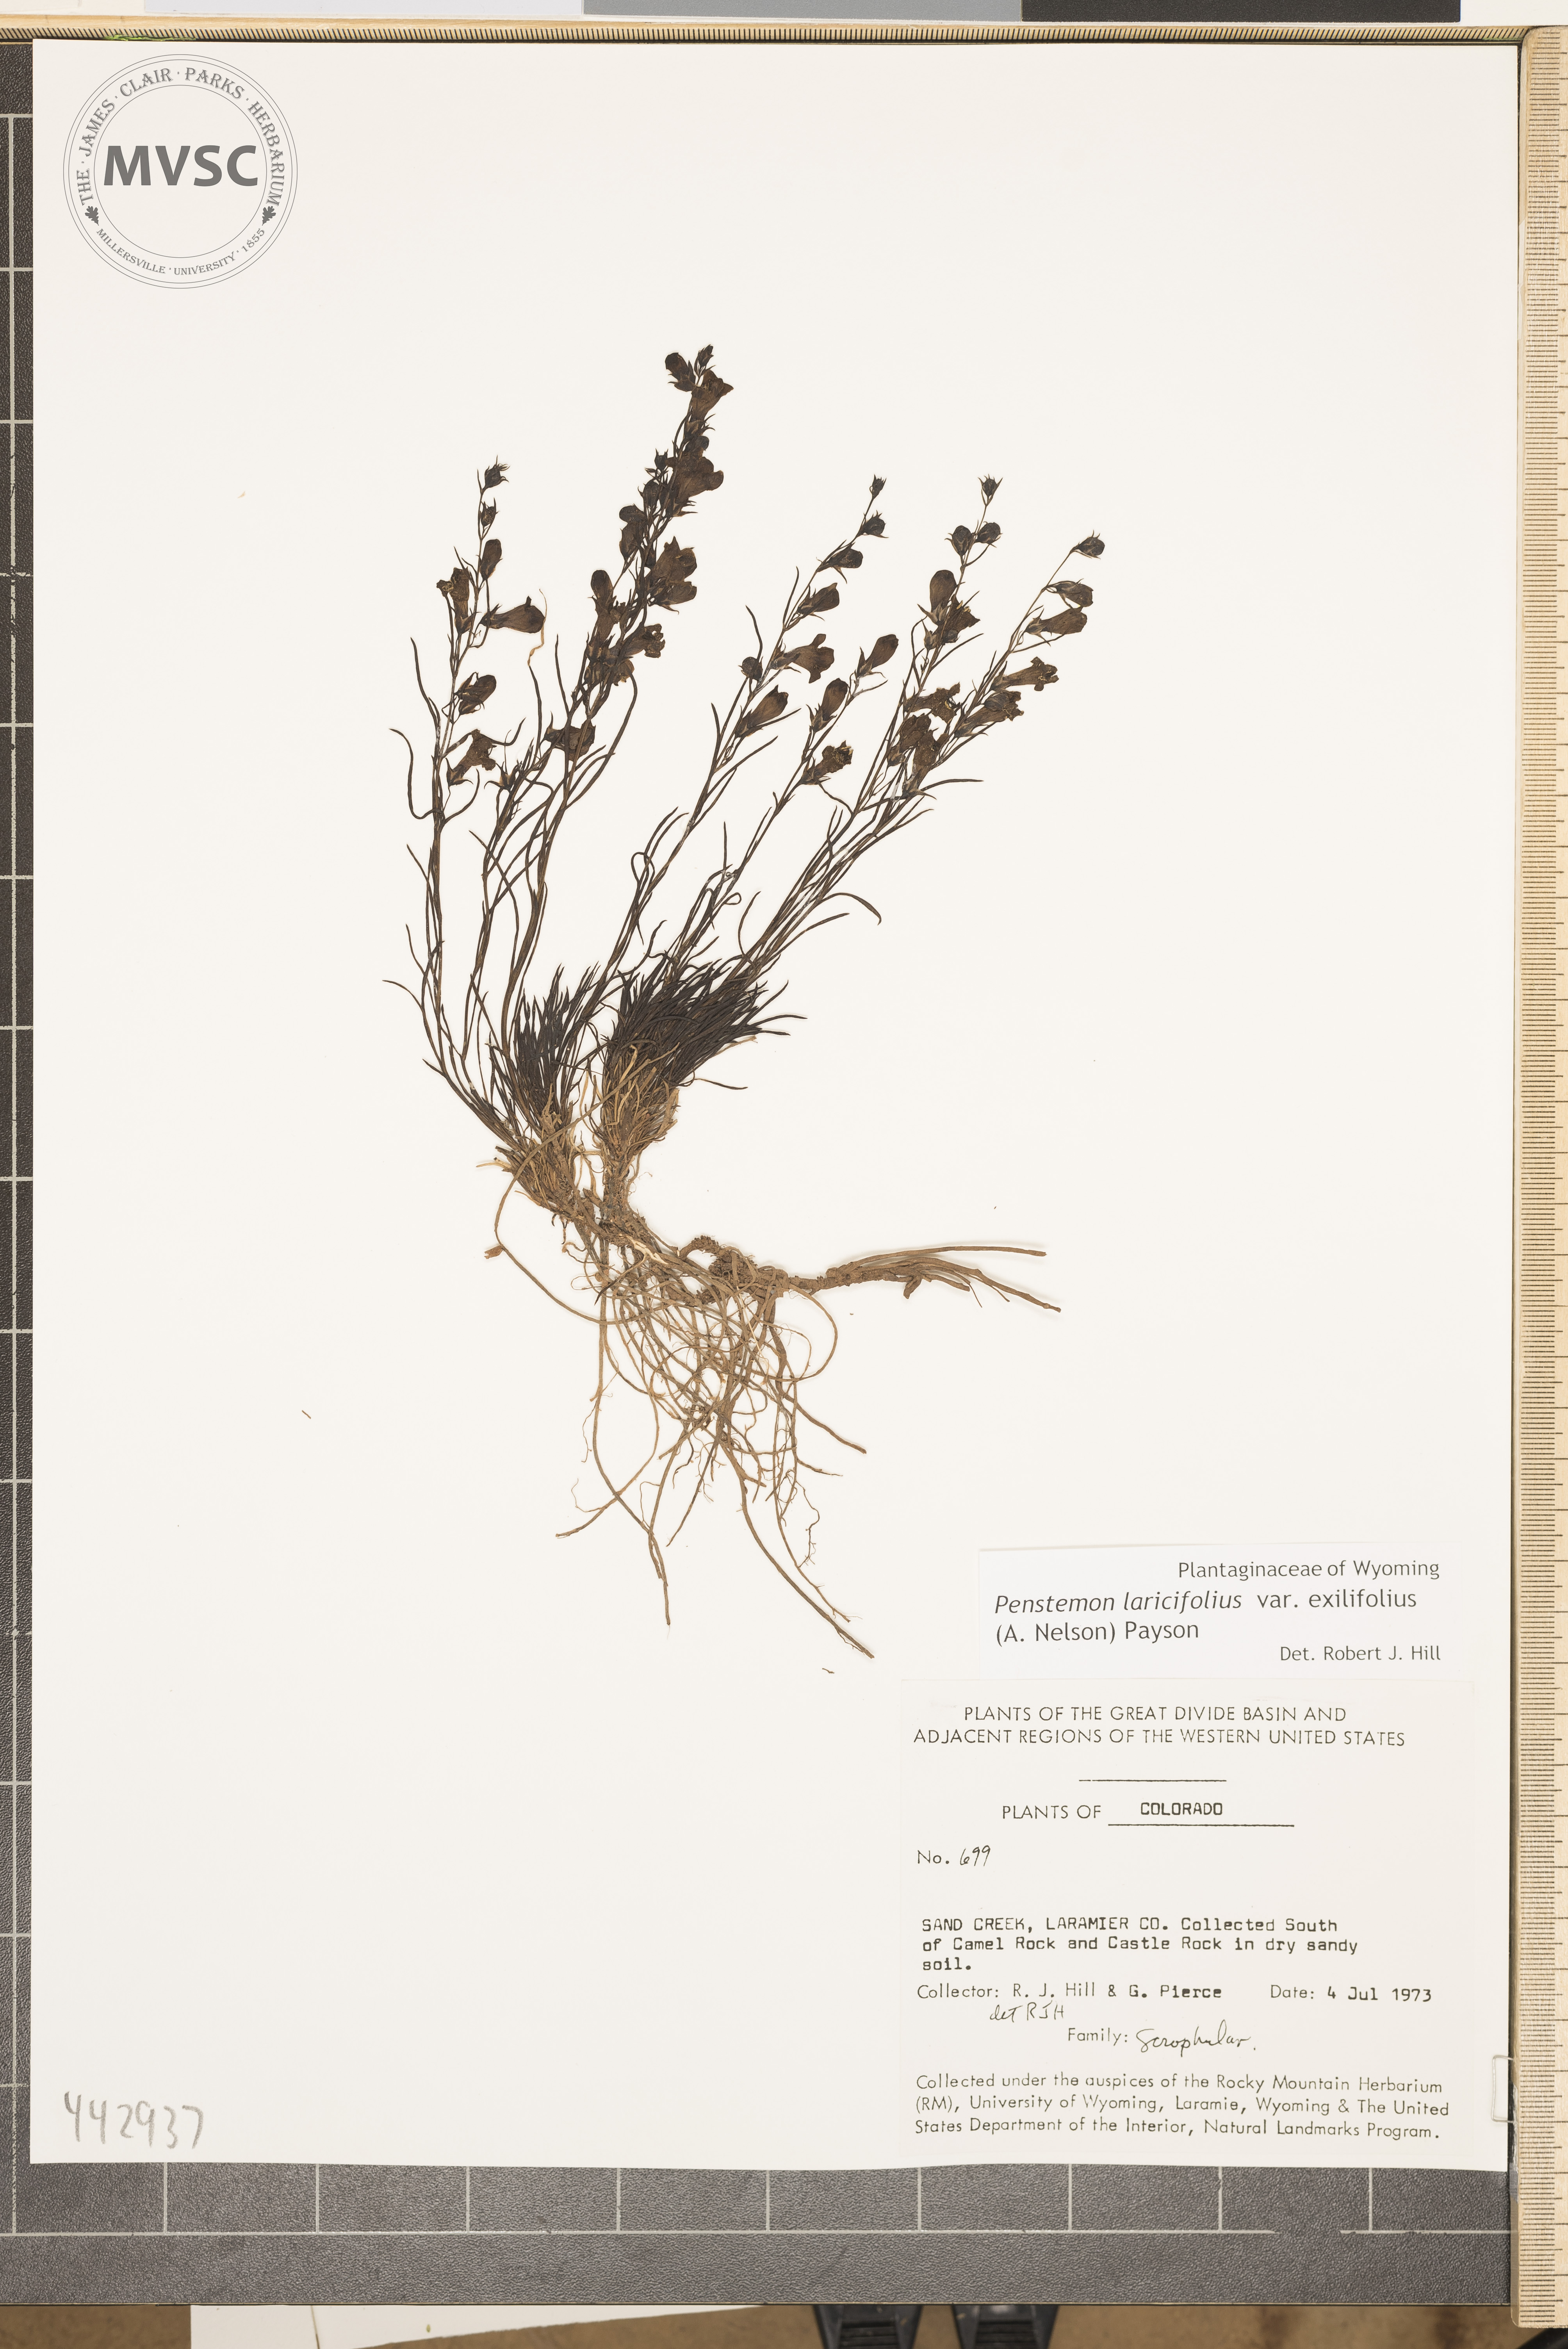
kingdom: Plantae
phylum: Tracheophyta
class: Magnoliopsida
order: Lamiales
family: Plantaginaceae
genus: Penstemon
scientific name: Penstemon laricifolius
